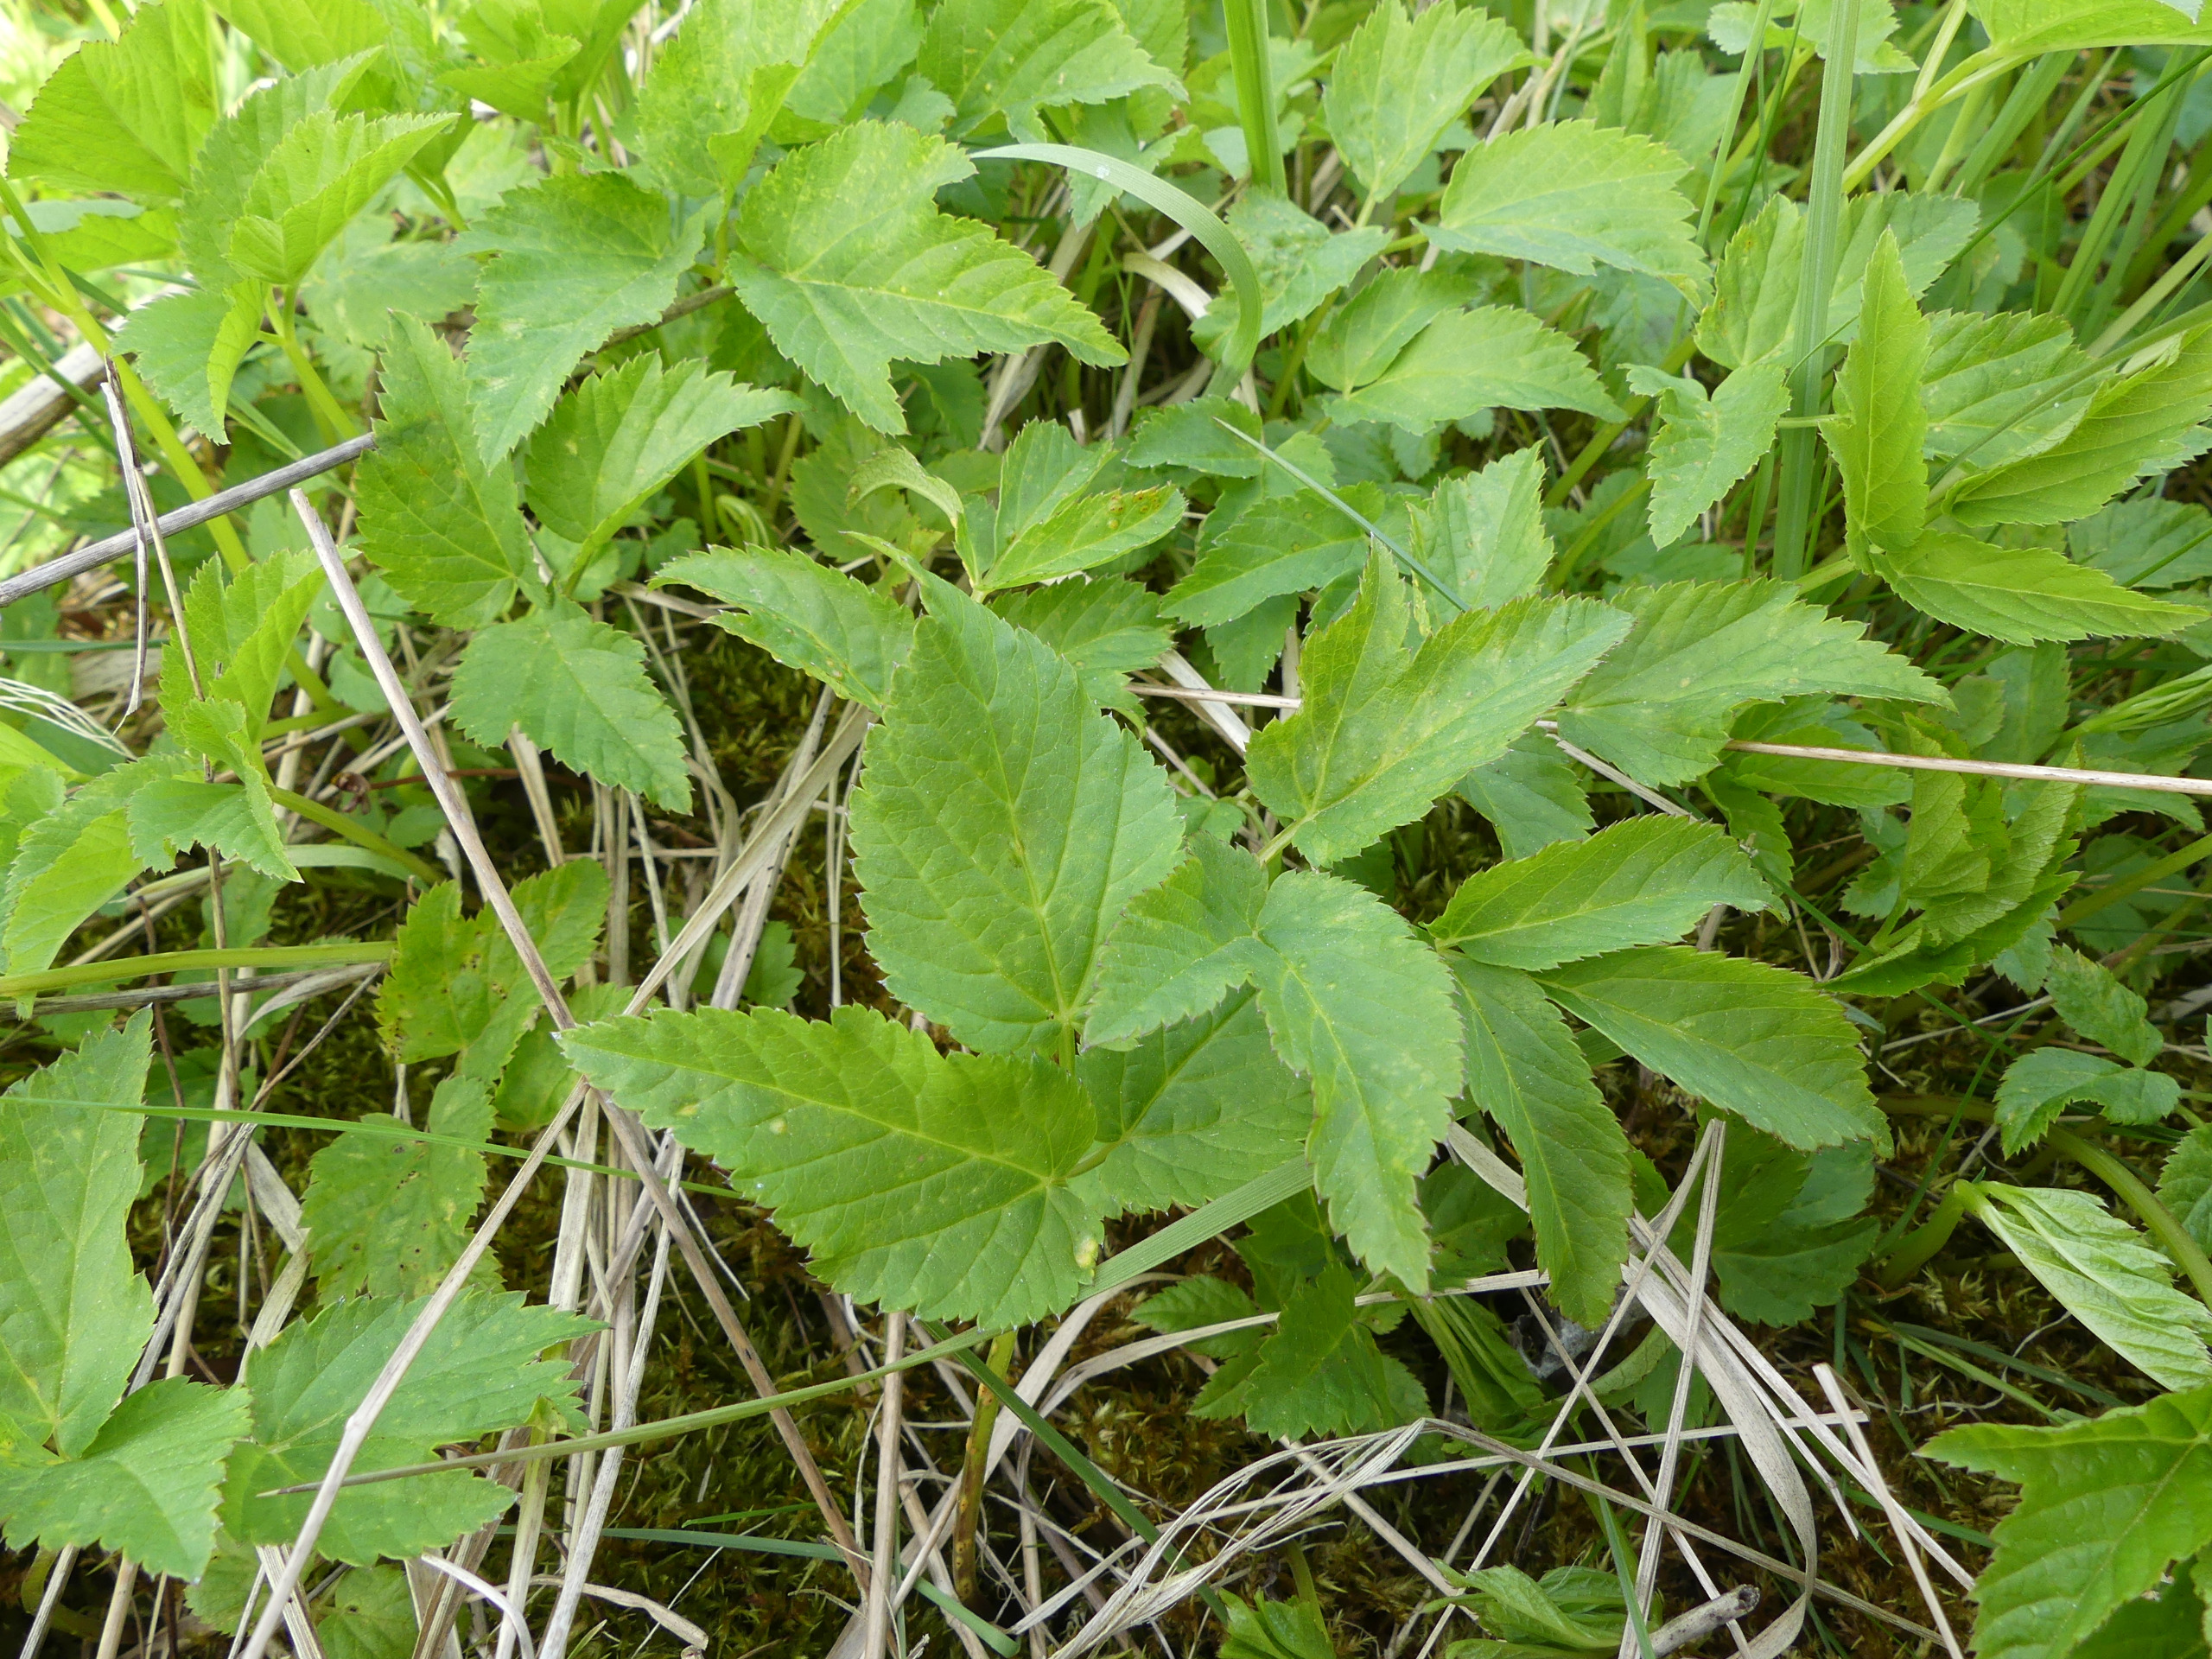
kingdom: Plantae
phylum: Tracheophyta
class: Magnoliopsida
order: Apiales
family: Apiaceae
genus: Aegopodium
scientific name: Aegopodium podagraria
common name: Skvalderkål
